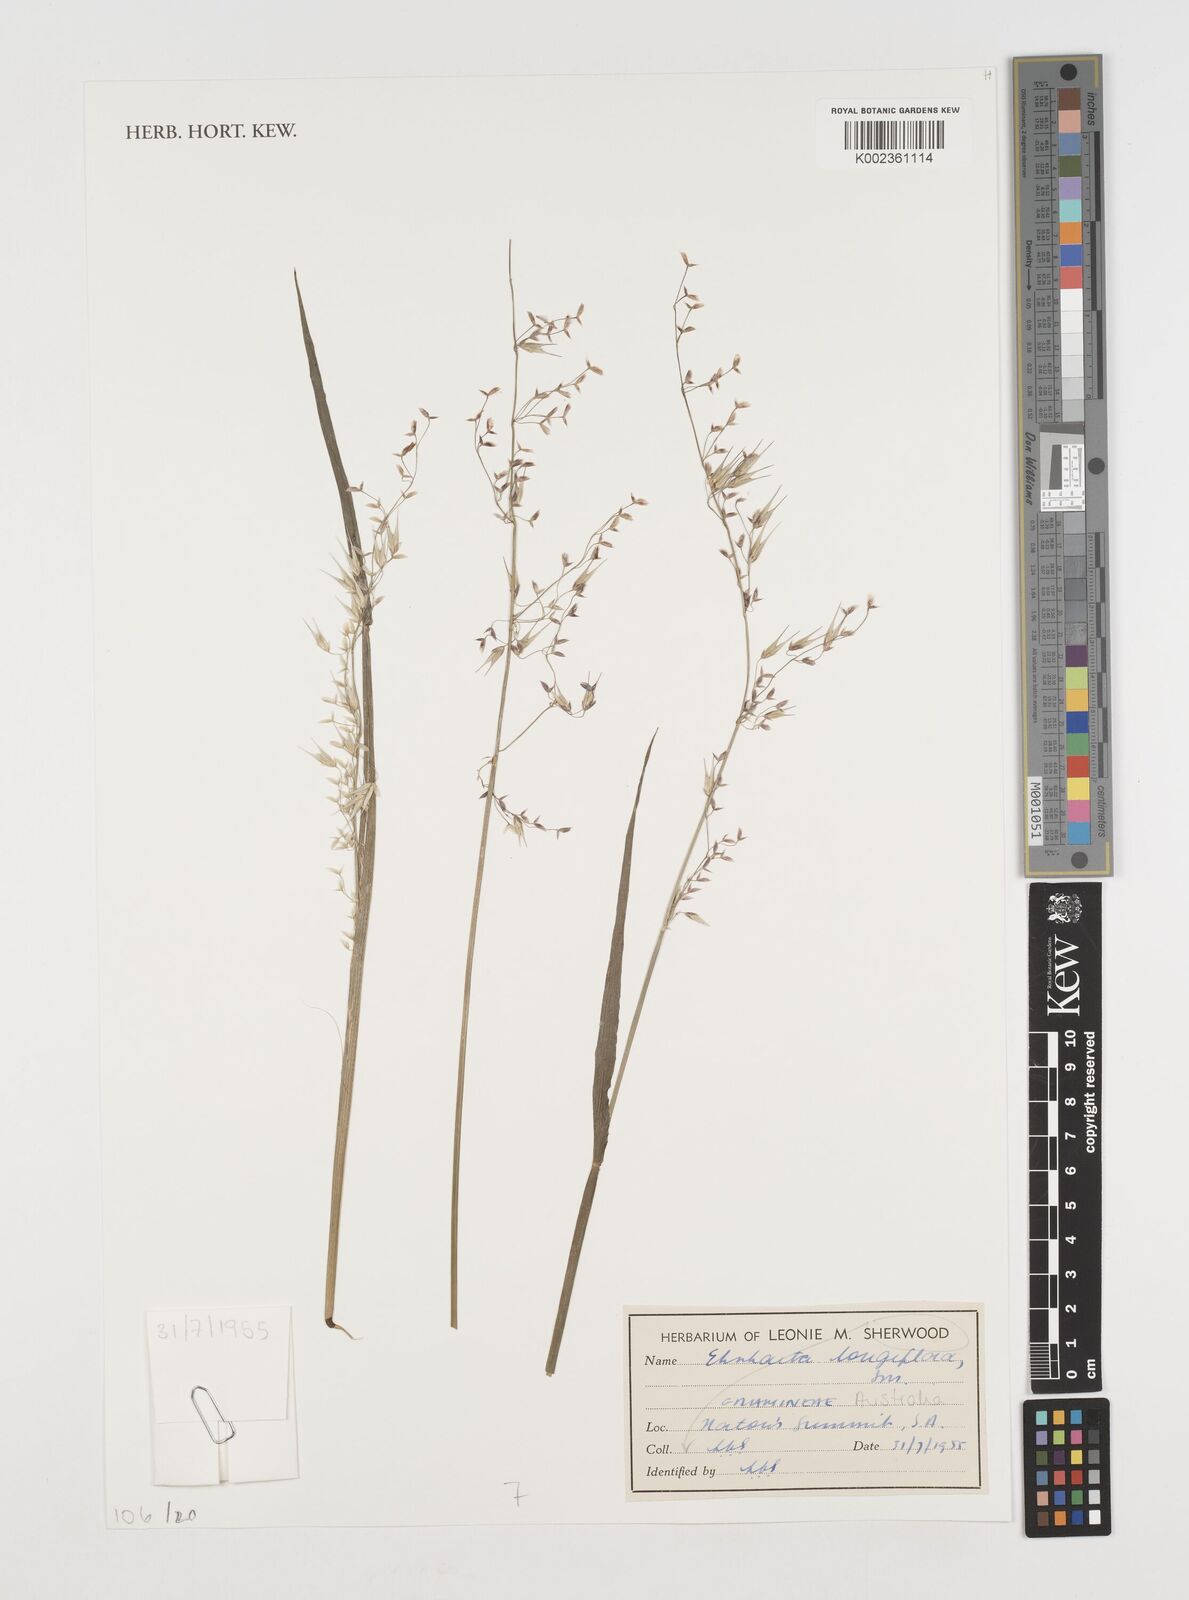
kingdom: Plantae
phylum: Tracheophyta
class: Liliopsida
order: Poales
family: Poaceae
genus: Ehrharta
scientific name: Ehrharta longiflora
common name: Longflowered veldtgrass
